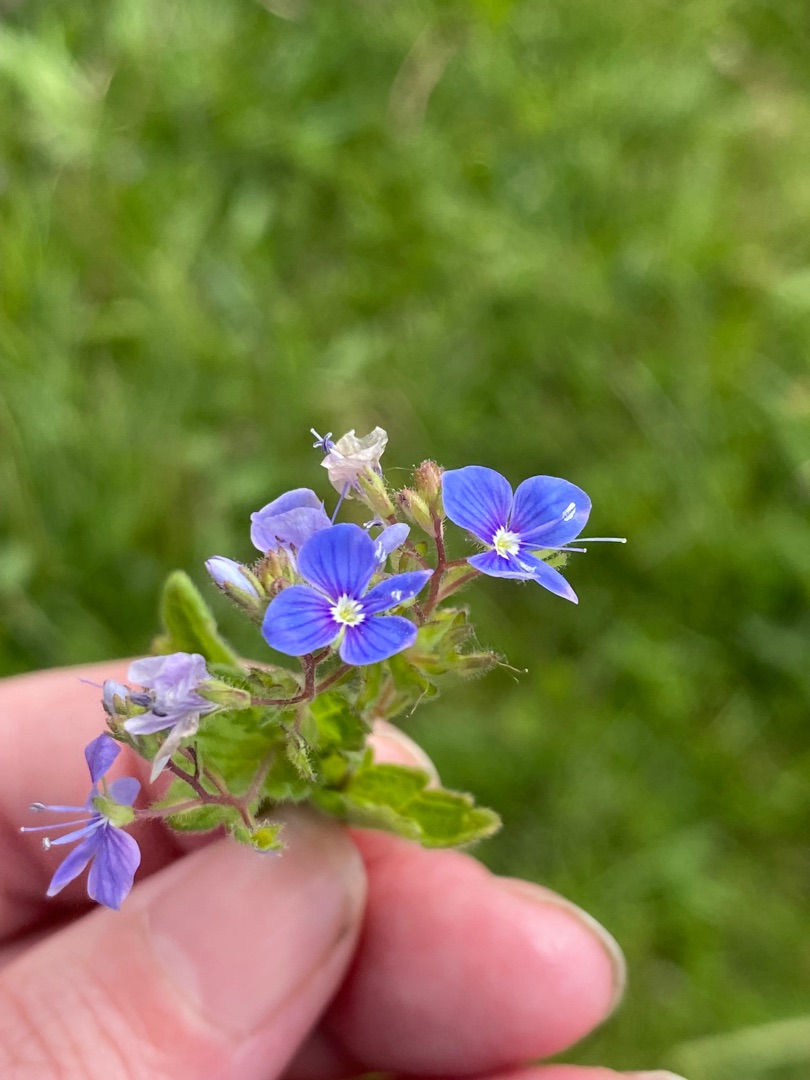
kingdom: Plantae
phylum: Tracheophyta
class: Magnoliopsida
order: Lamiales
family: Plantaginaceae
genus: Veronica
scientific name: Veronica chamaedrys
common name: Tveskægget ærenpris
